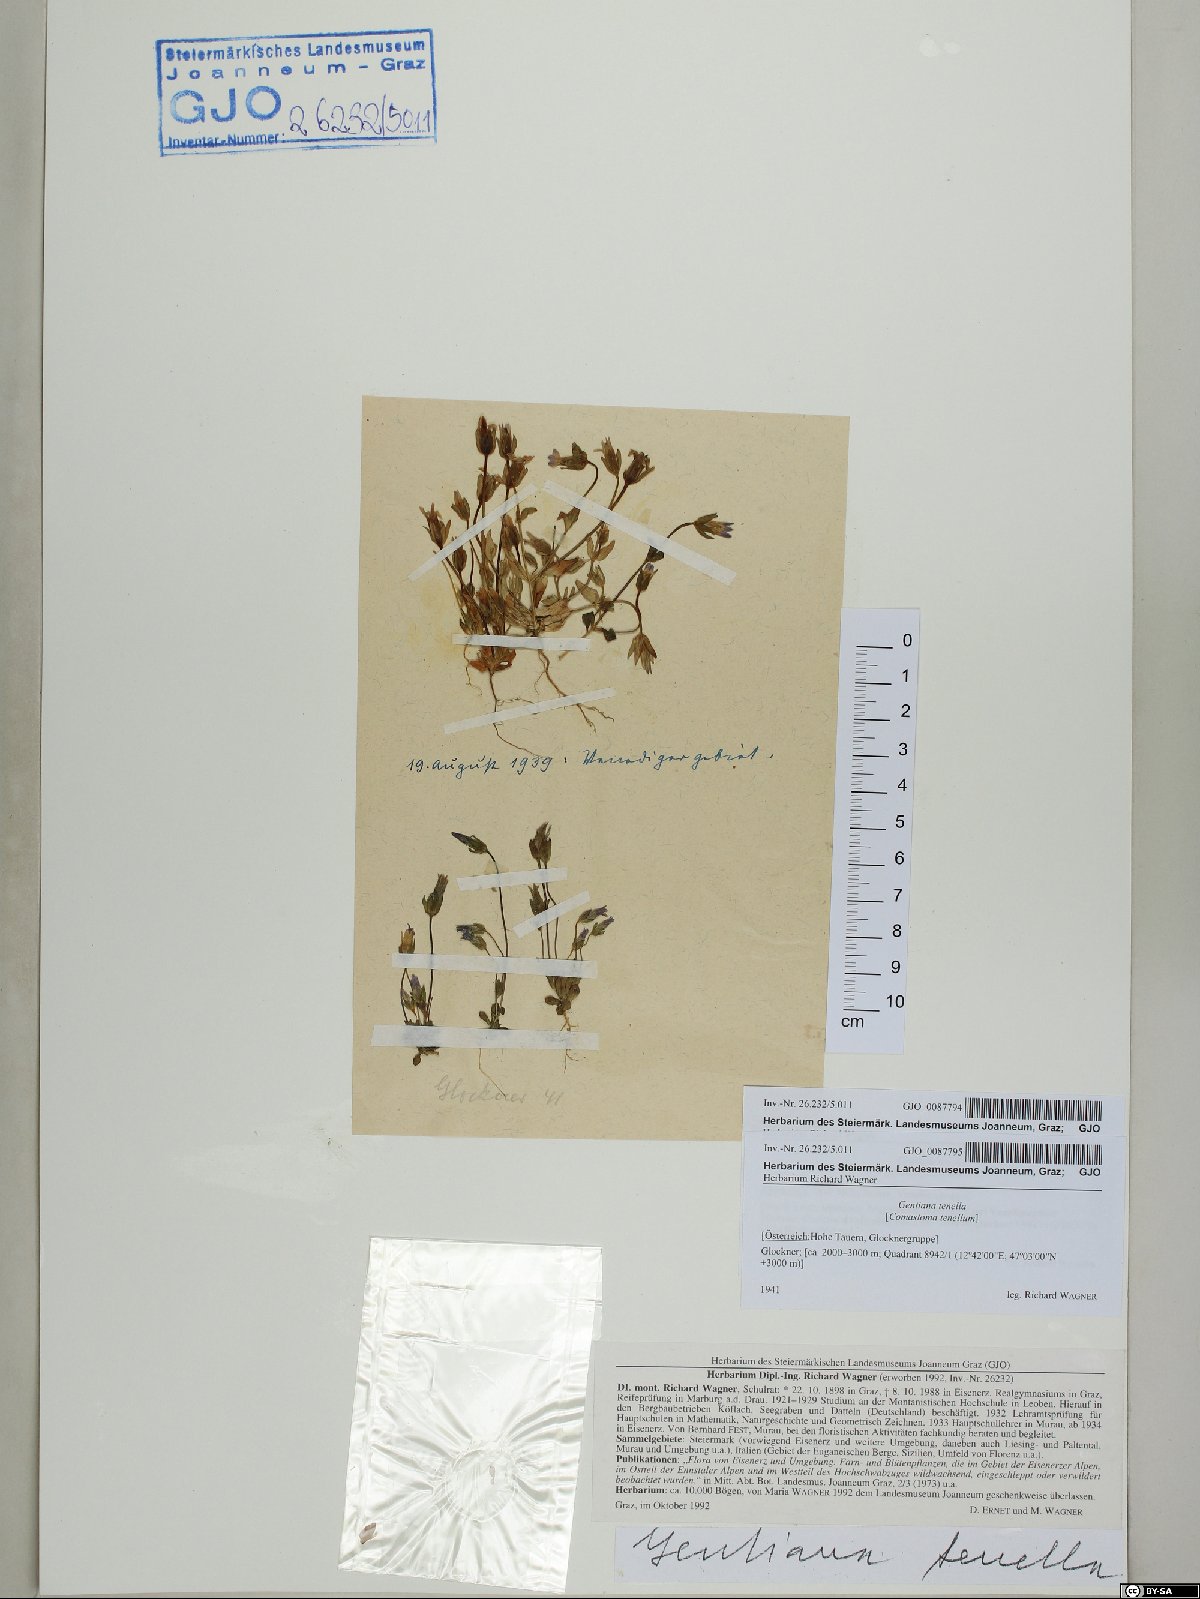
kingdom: Plantae
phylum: Tracheophyta
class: Magnoliopsida
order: Gentianales
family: Gentianaceae
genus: Comastoma
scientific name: Comastoma tenellum
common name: Dane's dwarf gentian
